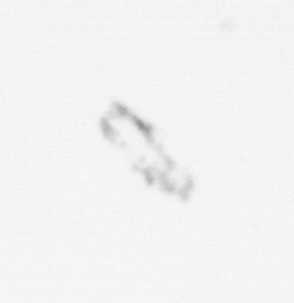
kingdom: Chromista
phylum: Ochrophyta
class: Bacillariophyceae
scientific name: Bacillariophyceae
